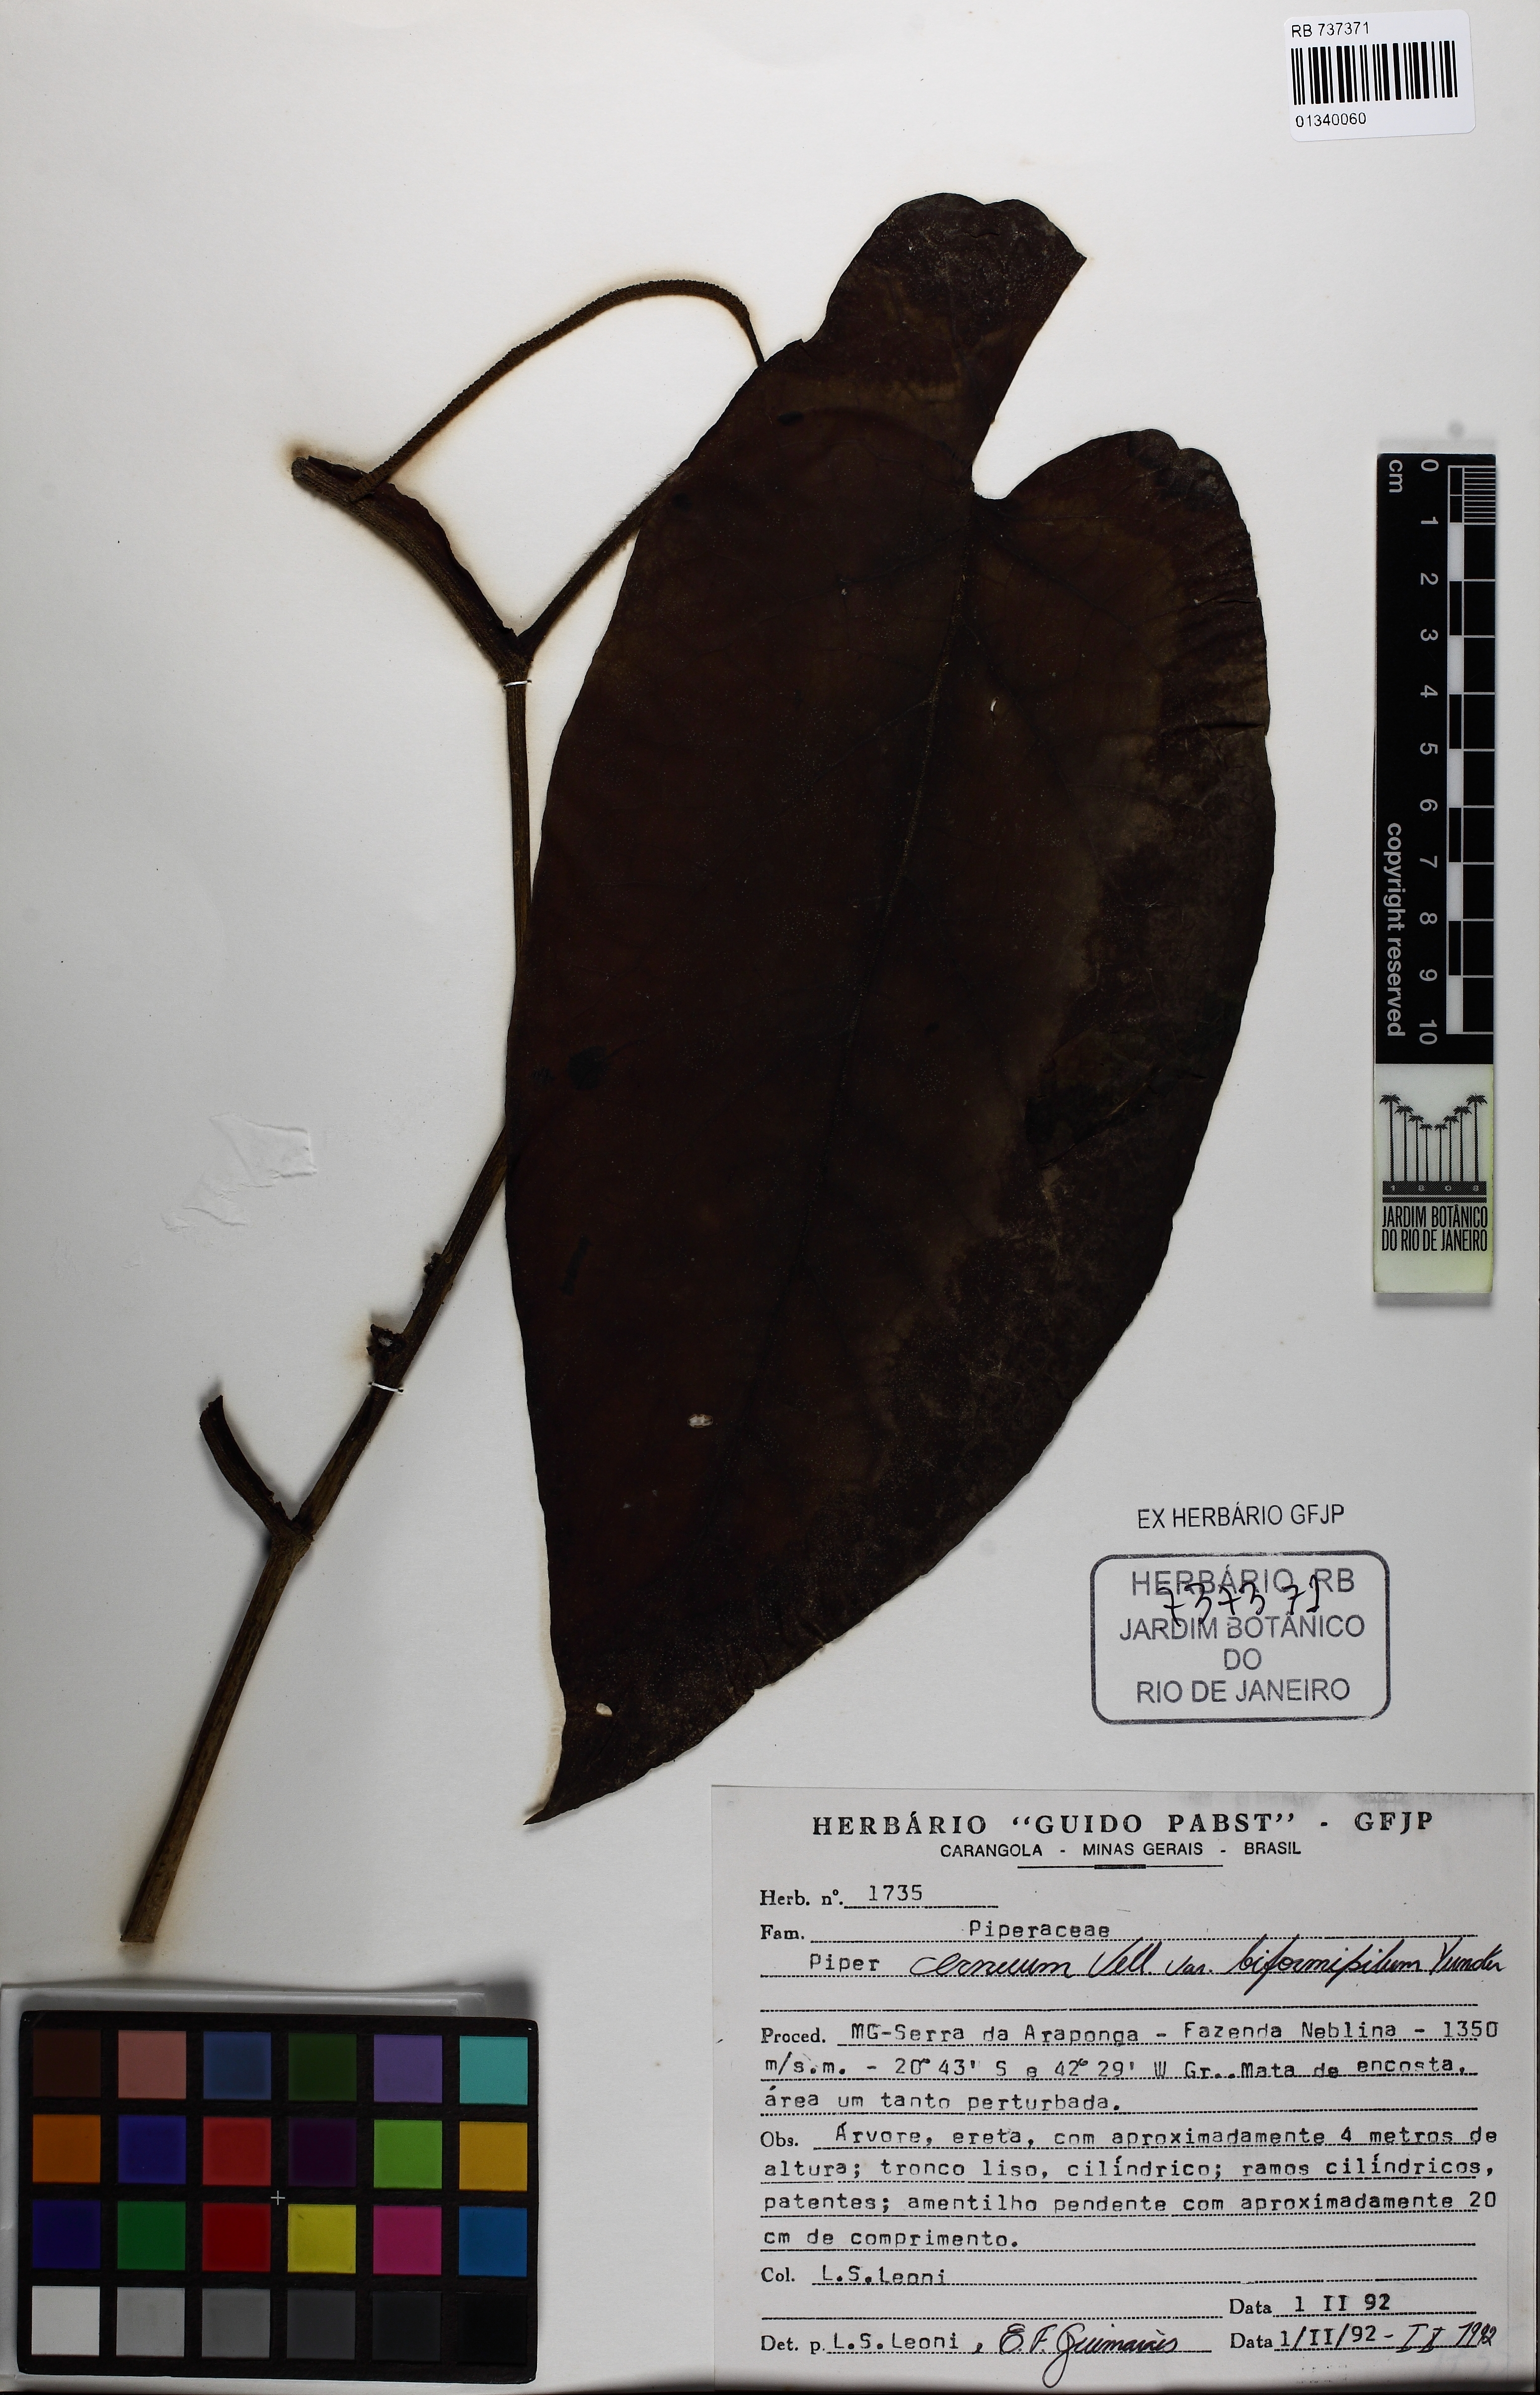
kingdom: Plantae
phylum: Tracheophyta
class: Magnoliopsida
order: Piperales
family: Piperaceae
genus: Piper
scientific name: Piper cernuum
